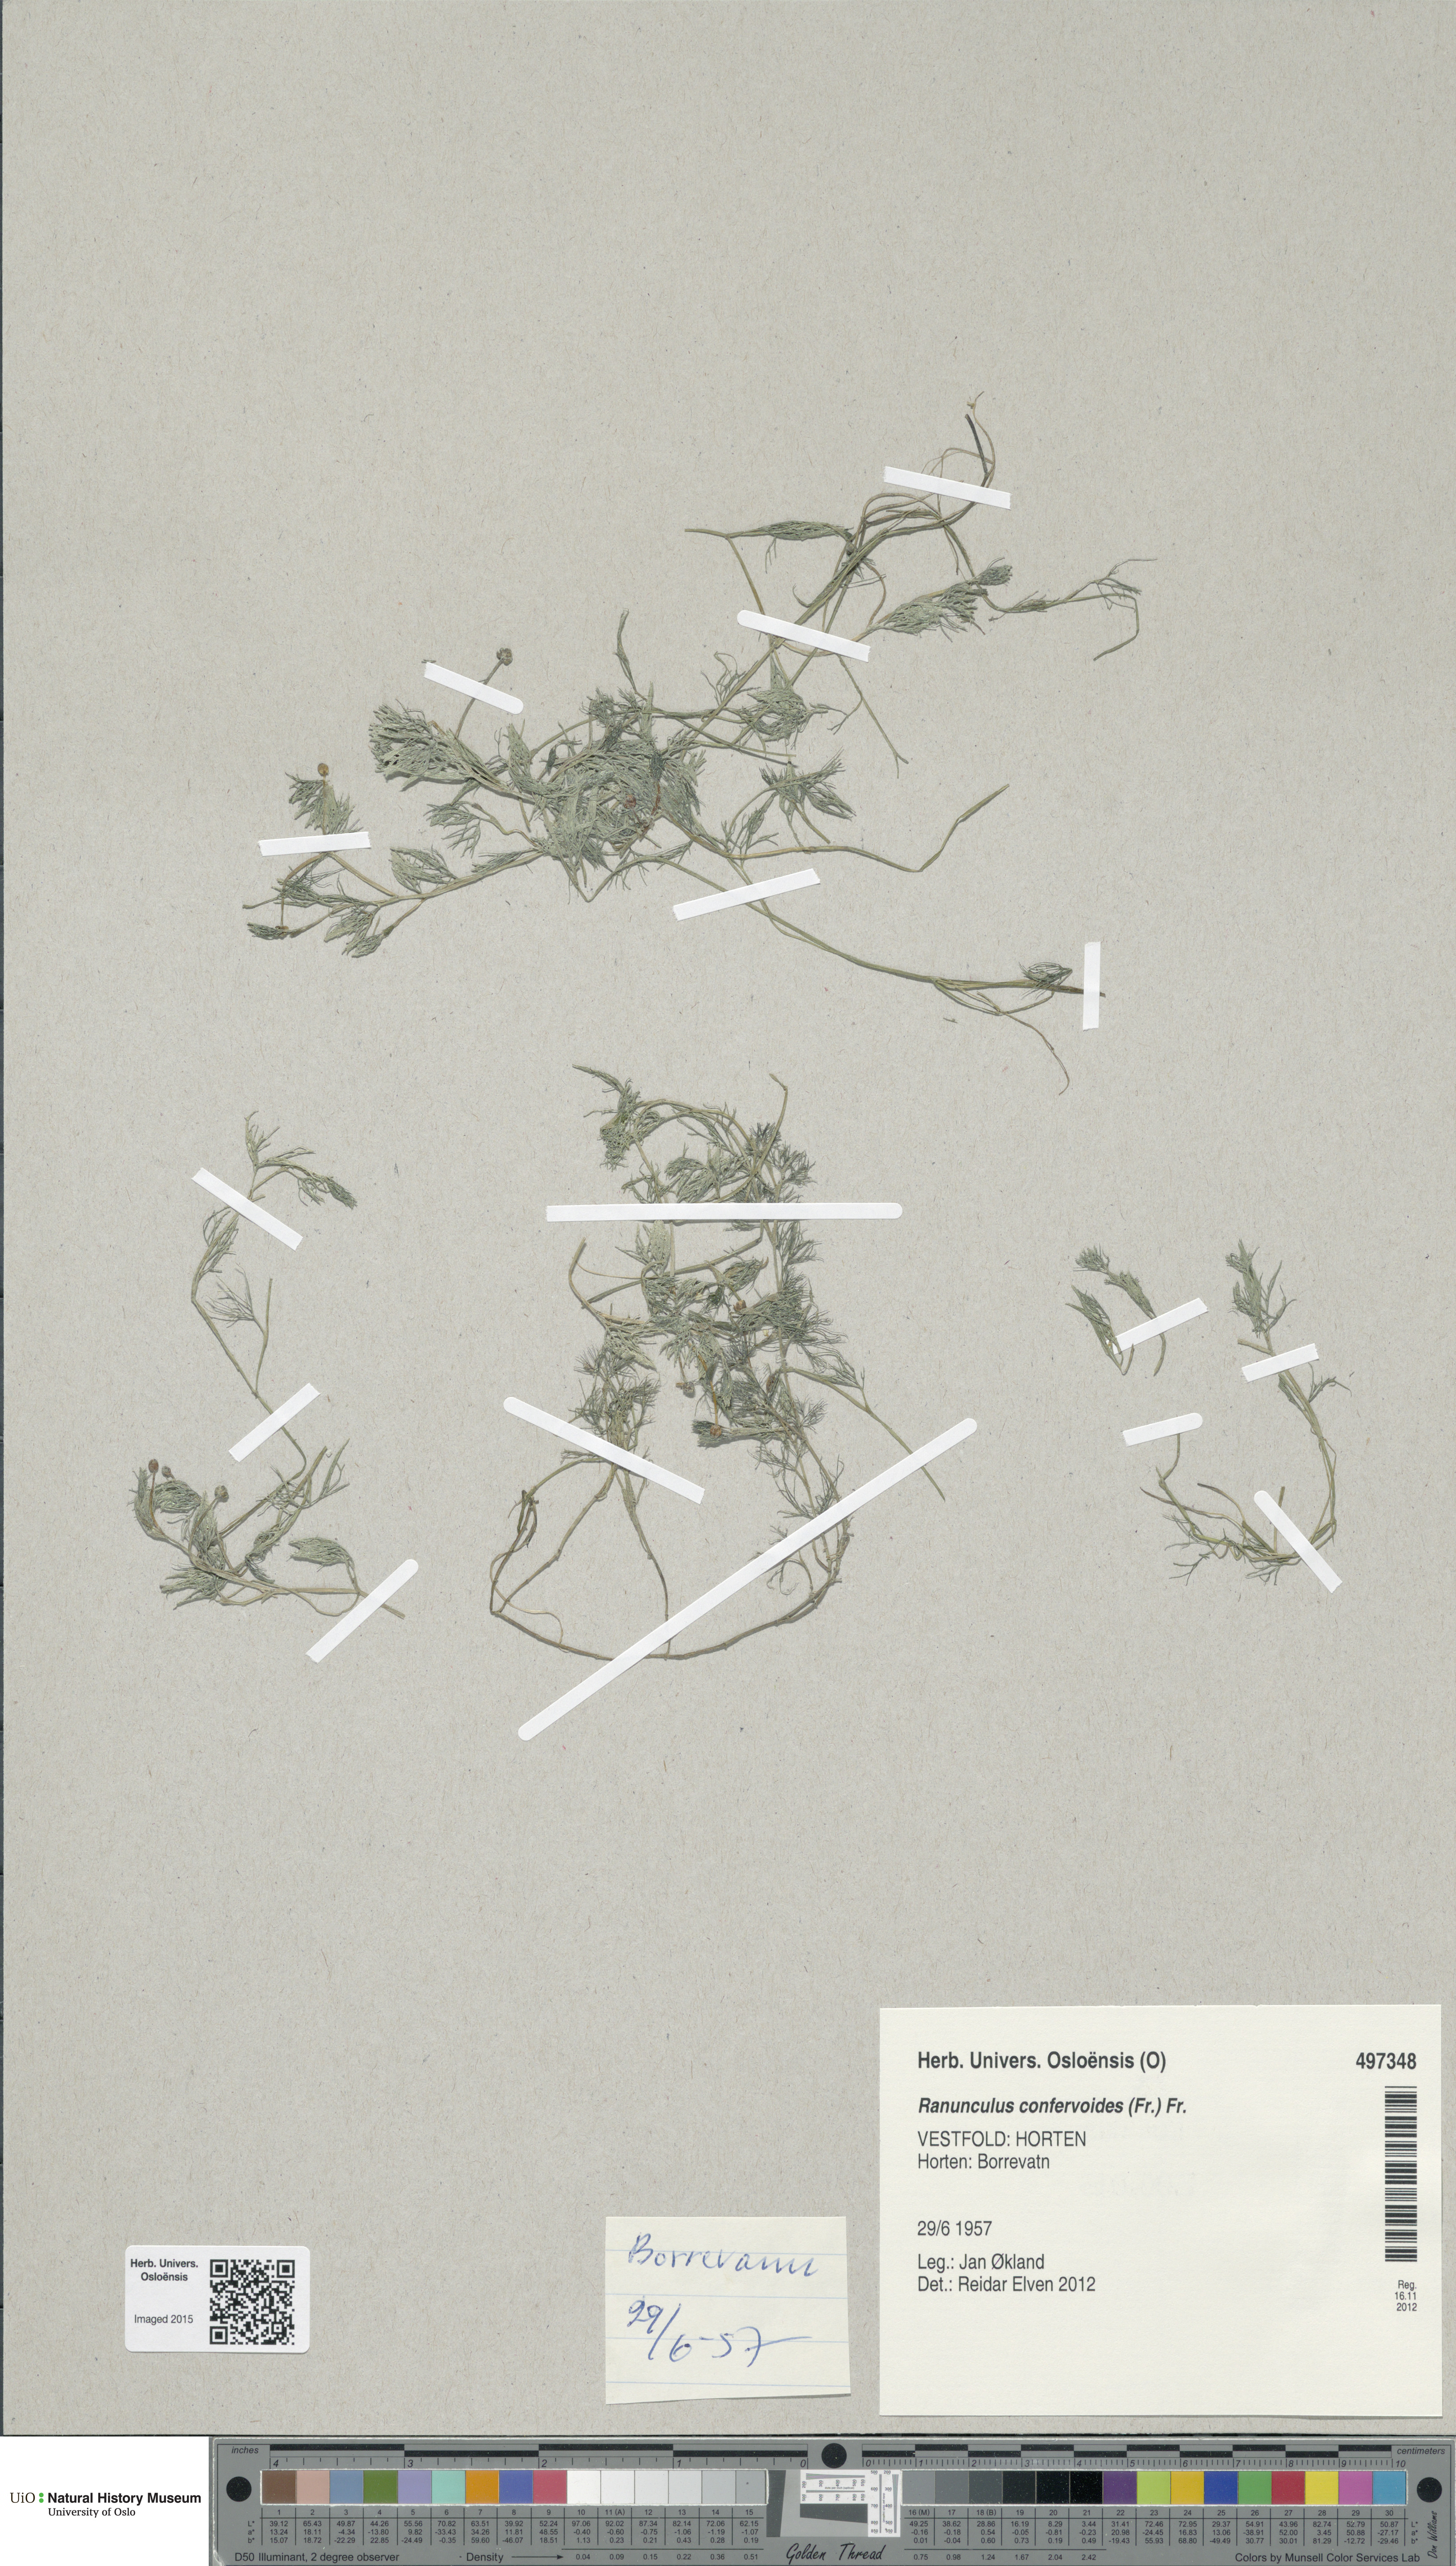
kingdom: Plantae
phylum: Tracheophyta
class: Magnoliopsida
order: Ranunculales
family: Ranunculaceae
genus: Ranunculus
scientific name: Ranunculus confervoides
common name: Delicate buttercup
